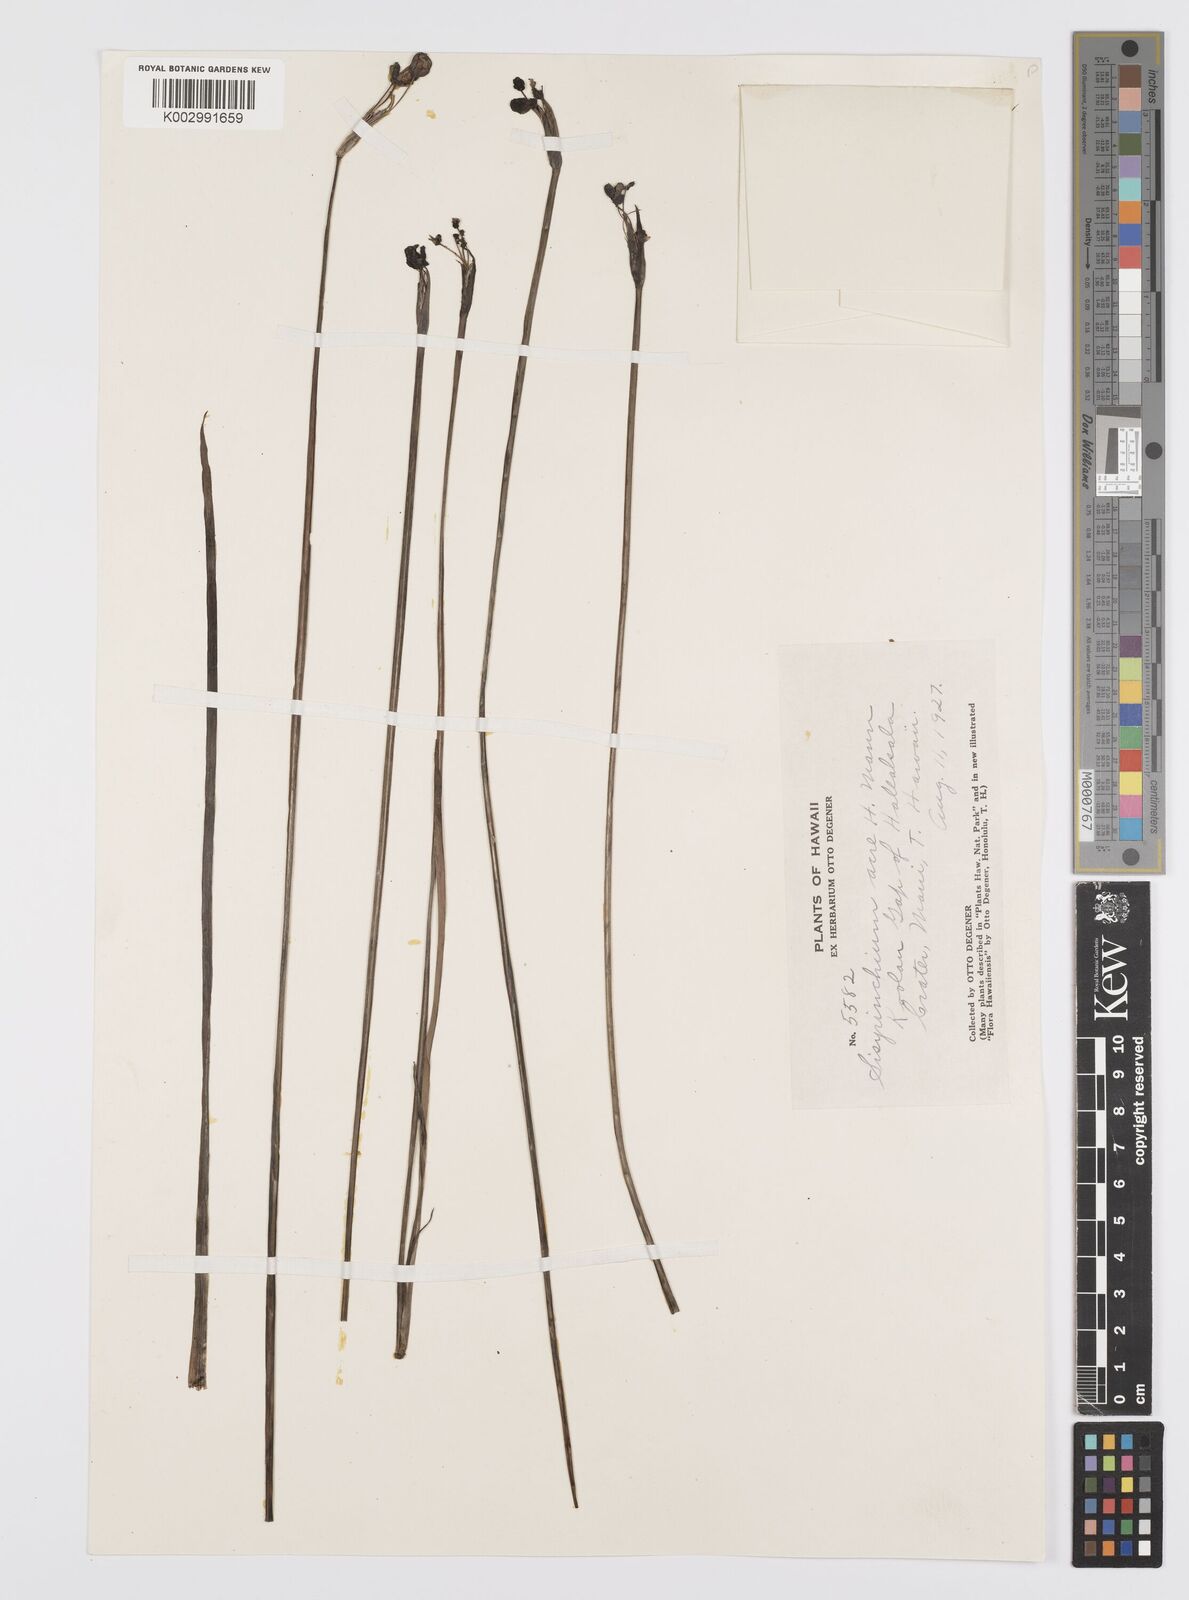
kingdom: Plantae
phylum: Tracheophyta
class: Liliopsida
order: Asparagales
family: Iridaceae
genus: Sisyrinchium
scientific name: Sisyrinchium acre
